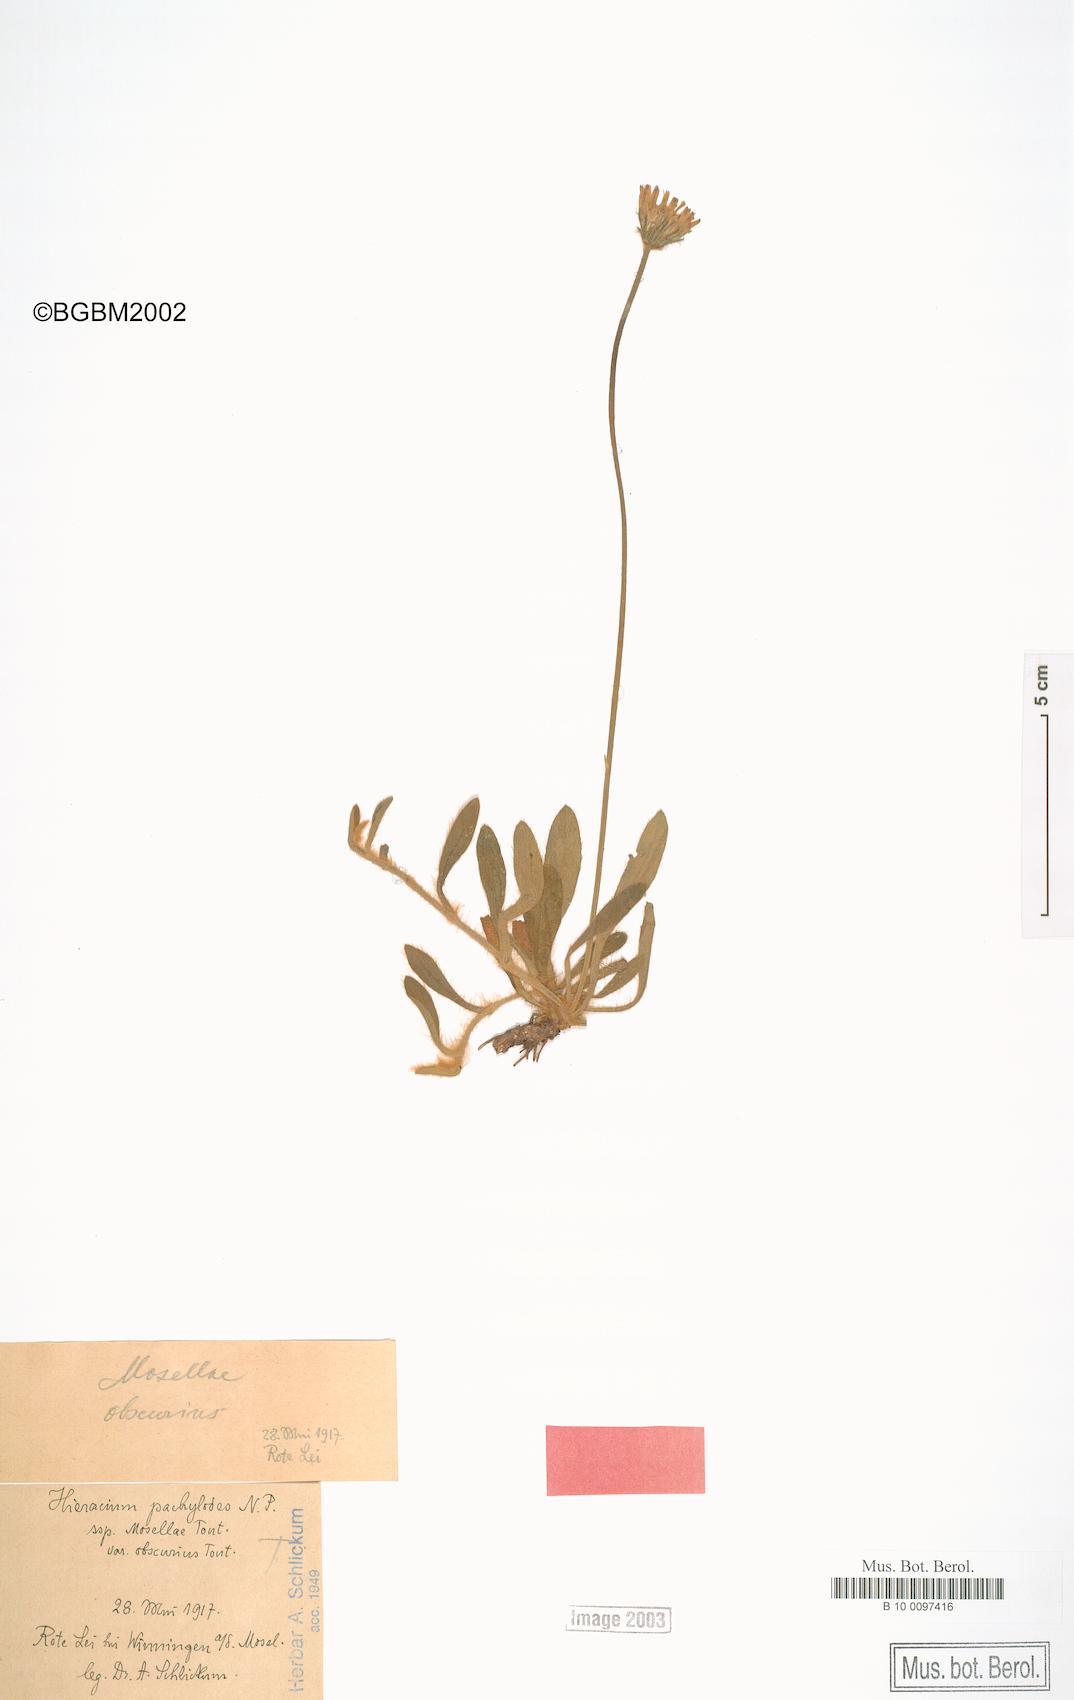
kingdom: Plantae
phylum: Tracheophyta
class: Magnoliopsida
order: Asterales
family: Asteraceae
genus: Pilosella
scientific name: Pilosella longisquama
